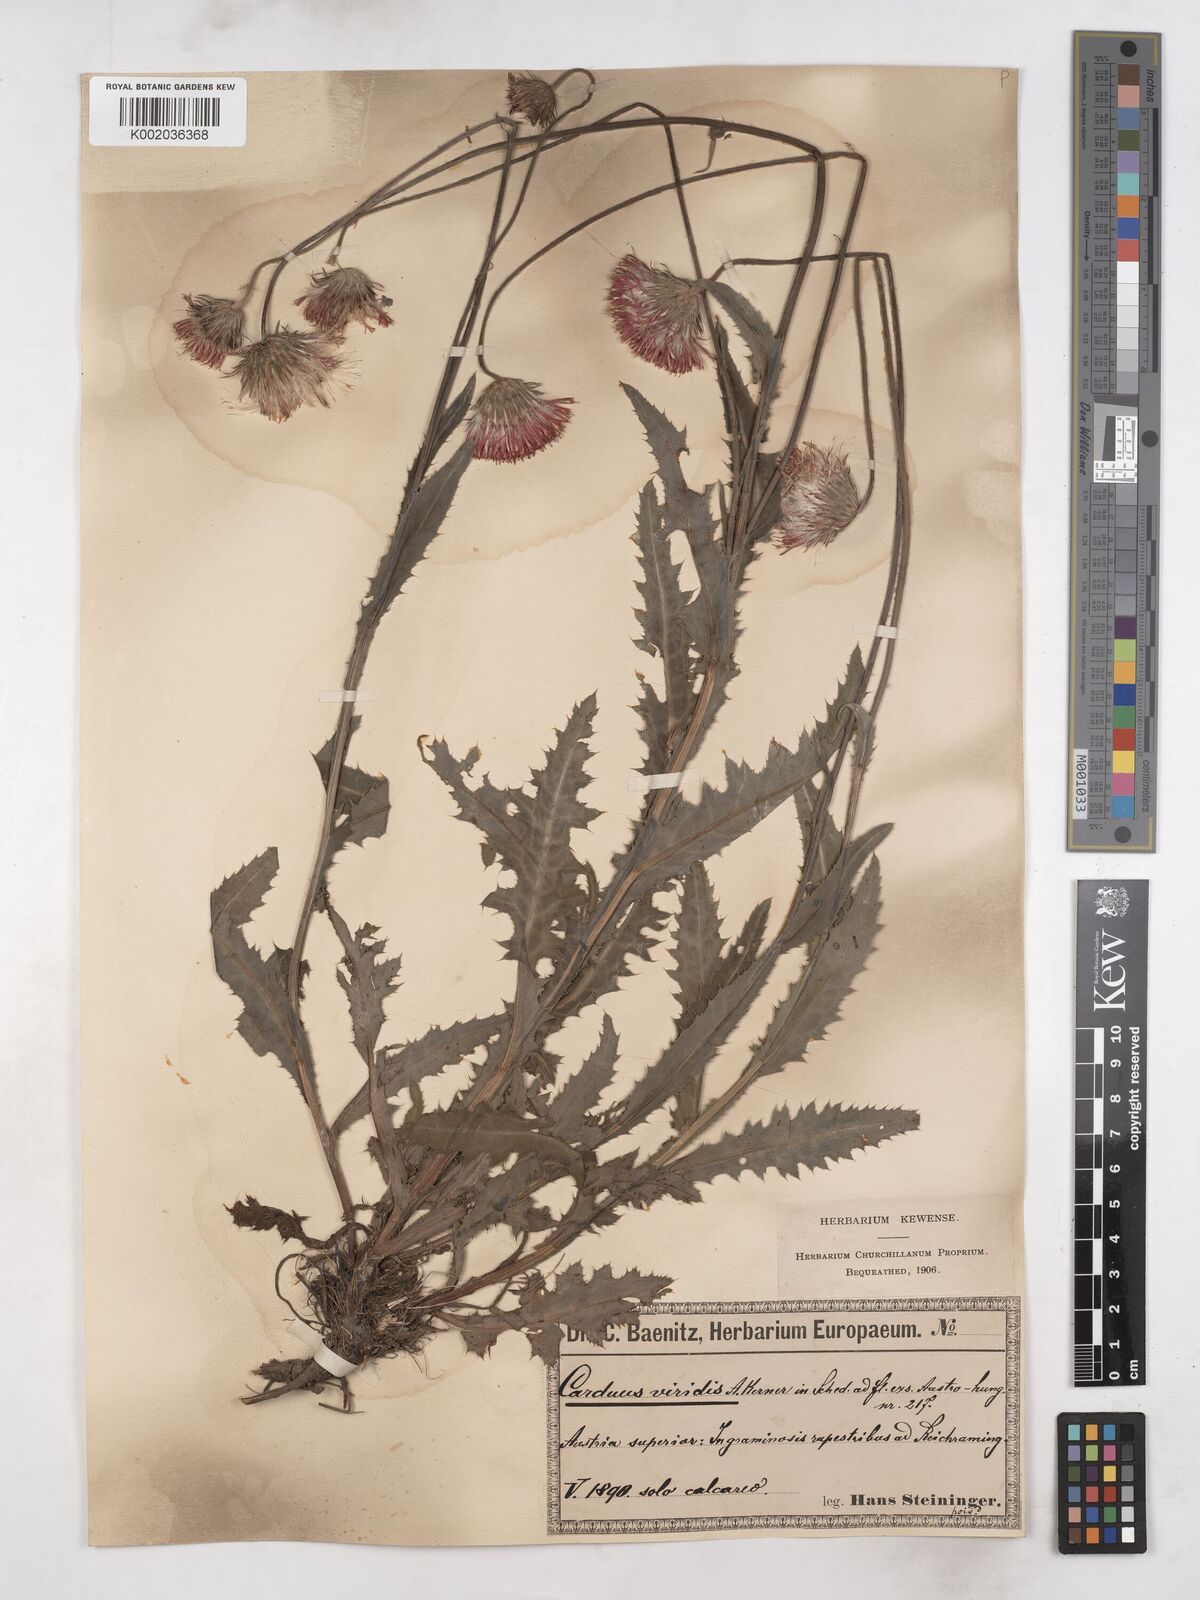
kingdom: Plantae
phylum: Tracheophyta
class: Magnoliopsida
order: Asterales
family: Asteraceae
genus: Carduus
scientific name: Carduus defloratus
